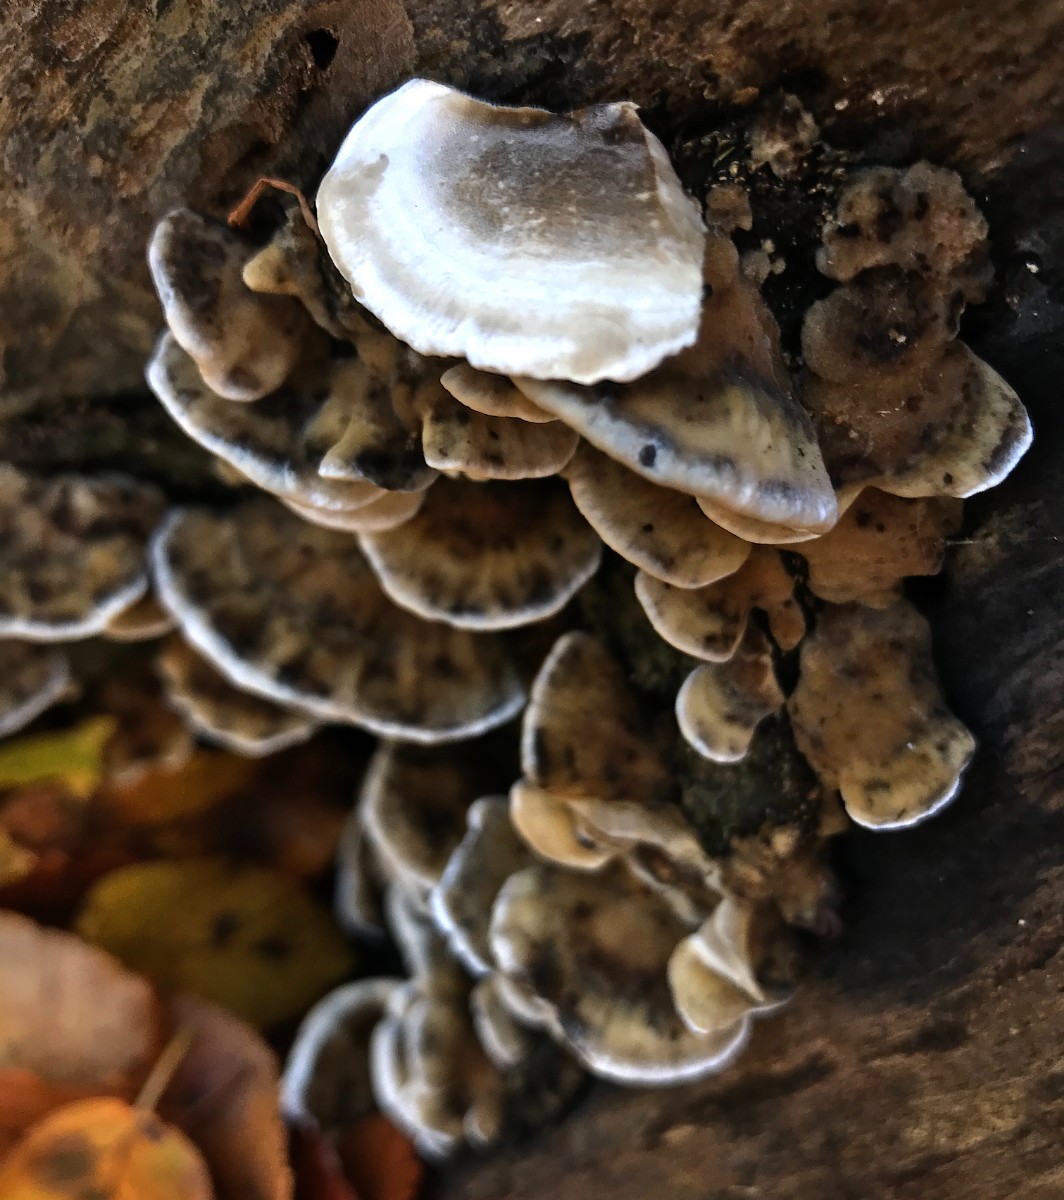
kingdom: Fungi
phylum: Basidiomycota
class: Agaricomycetes
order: Polyporales
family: Phanerochaetaceae
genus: Bjerkandera
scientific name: Bjerkandera adusta
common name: sveden sodporesvamp
